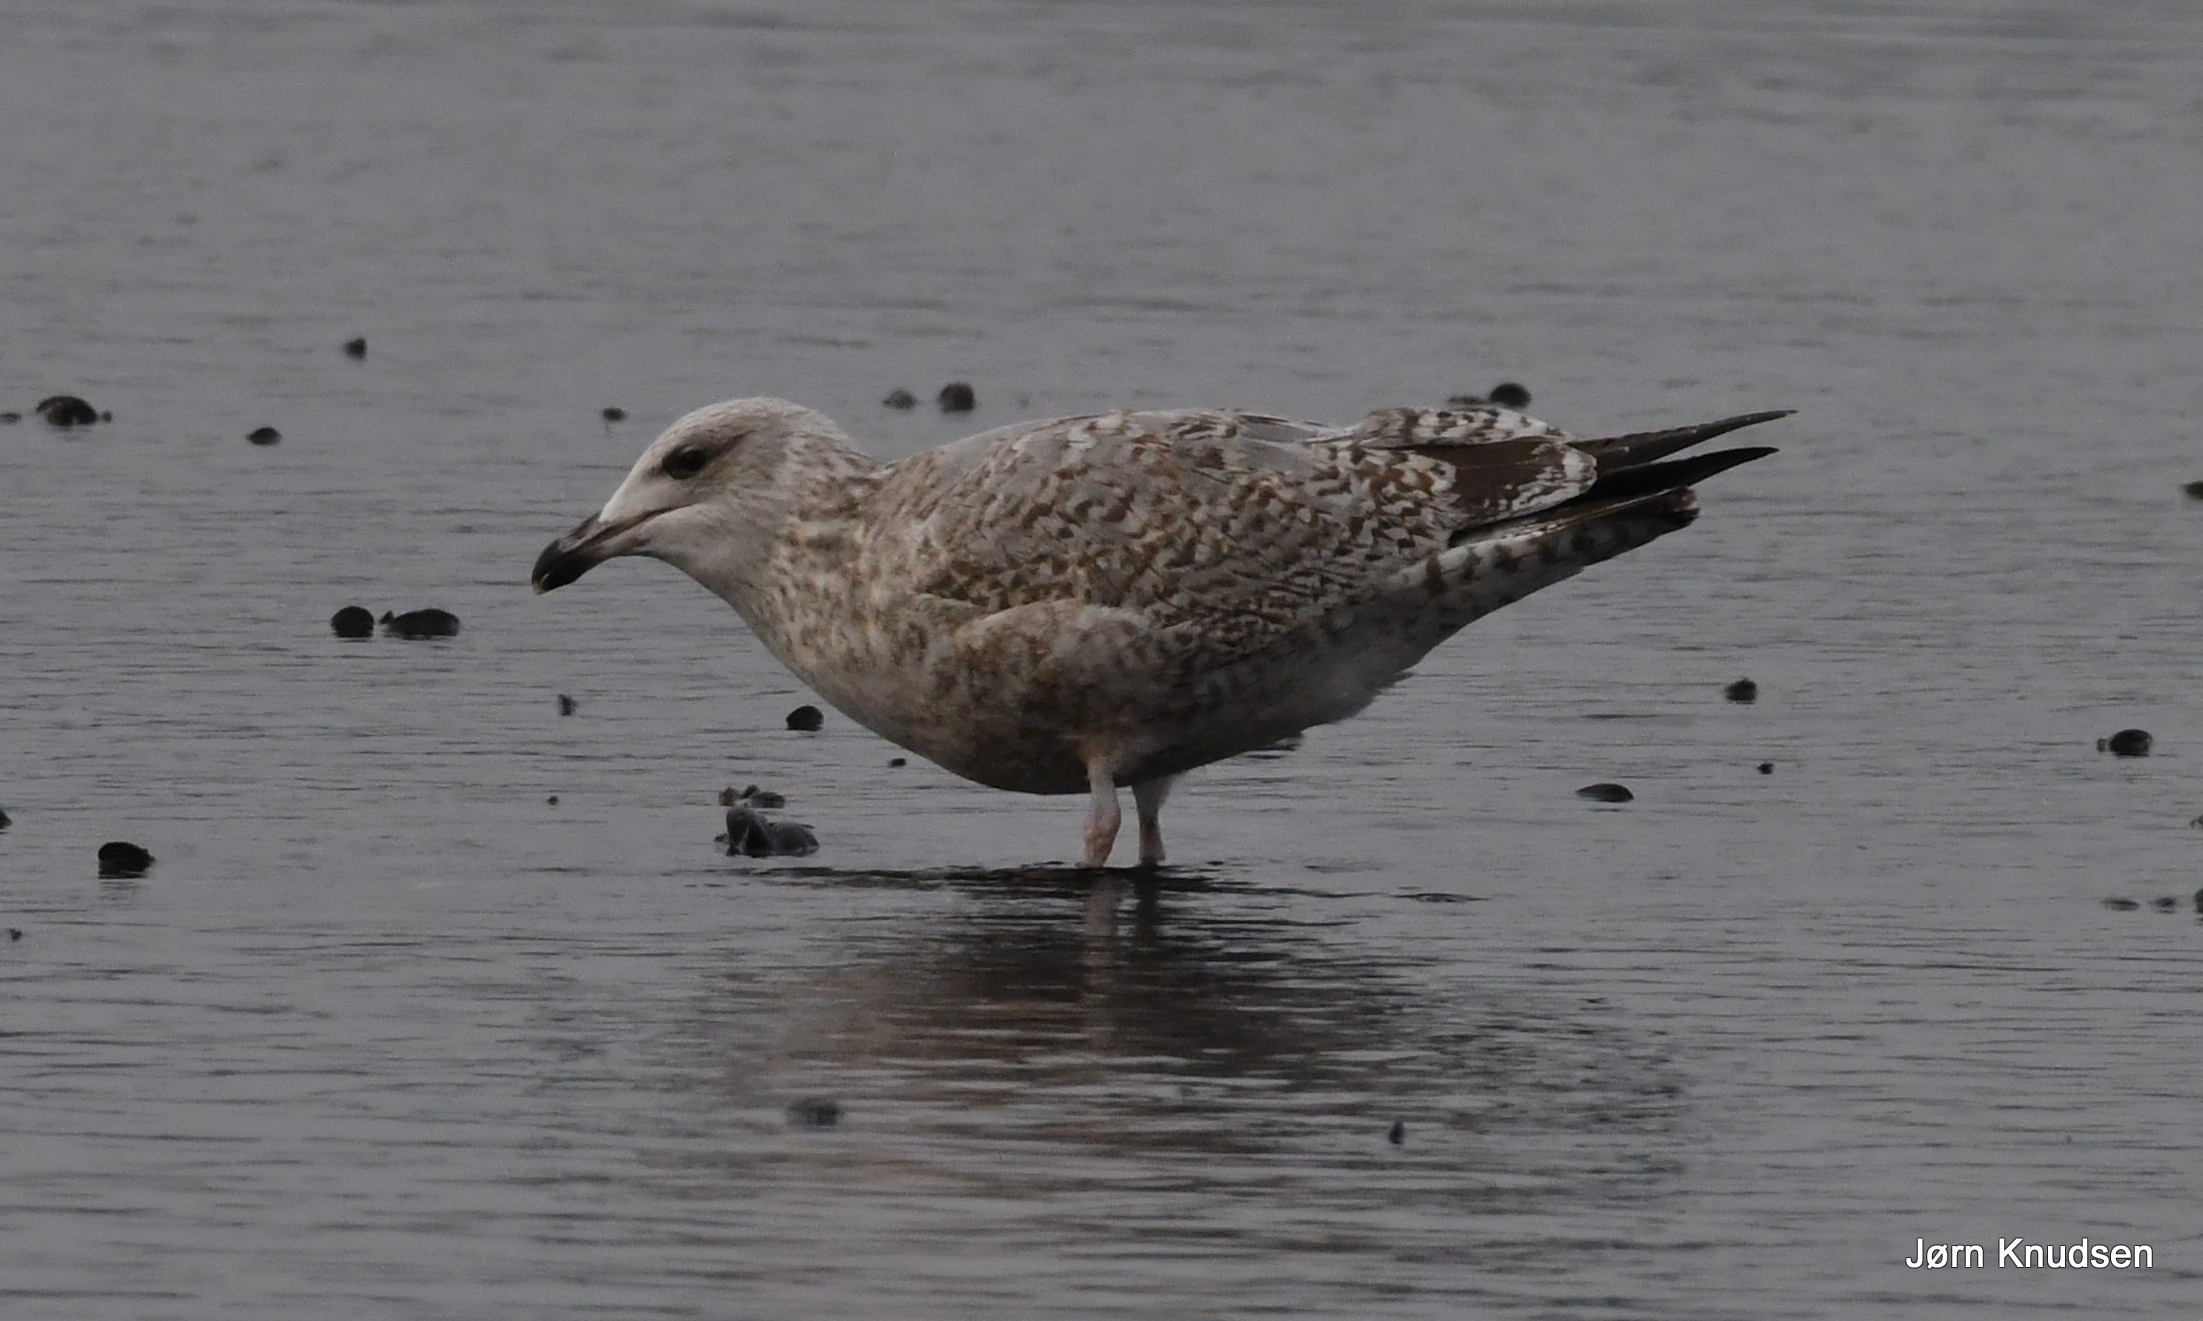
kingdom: Animalia
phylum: Chordata
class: Aves
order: Charadriiformes
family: Laridae
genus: Larus
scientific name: Larus argentatus
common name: Sølvmåge
